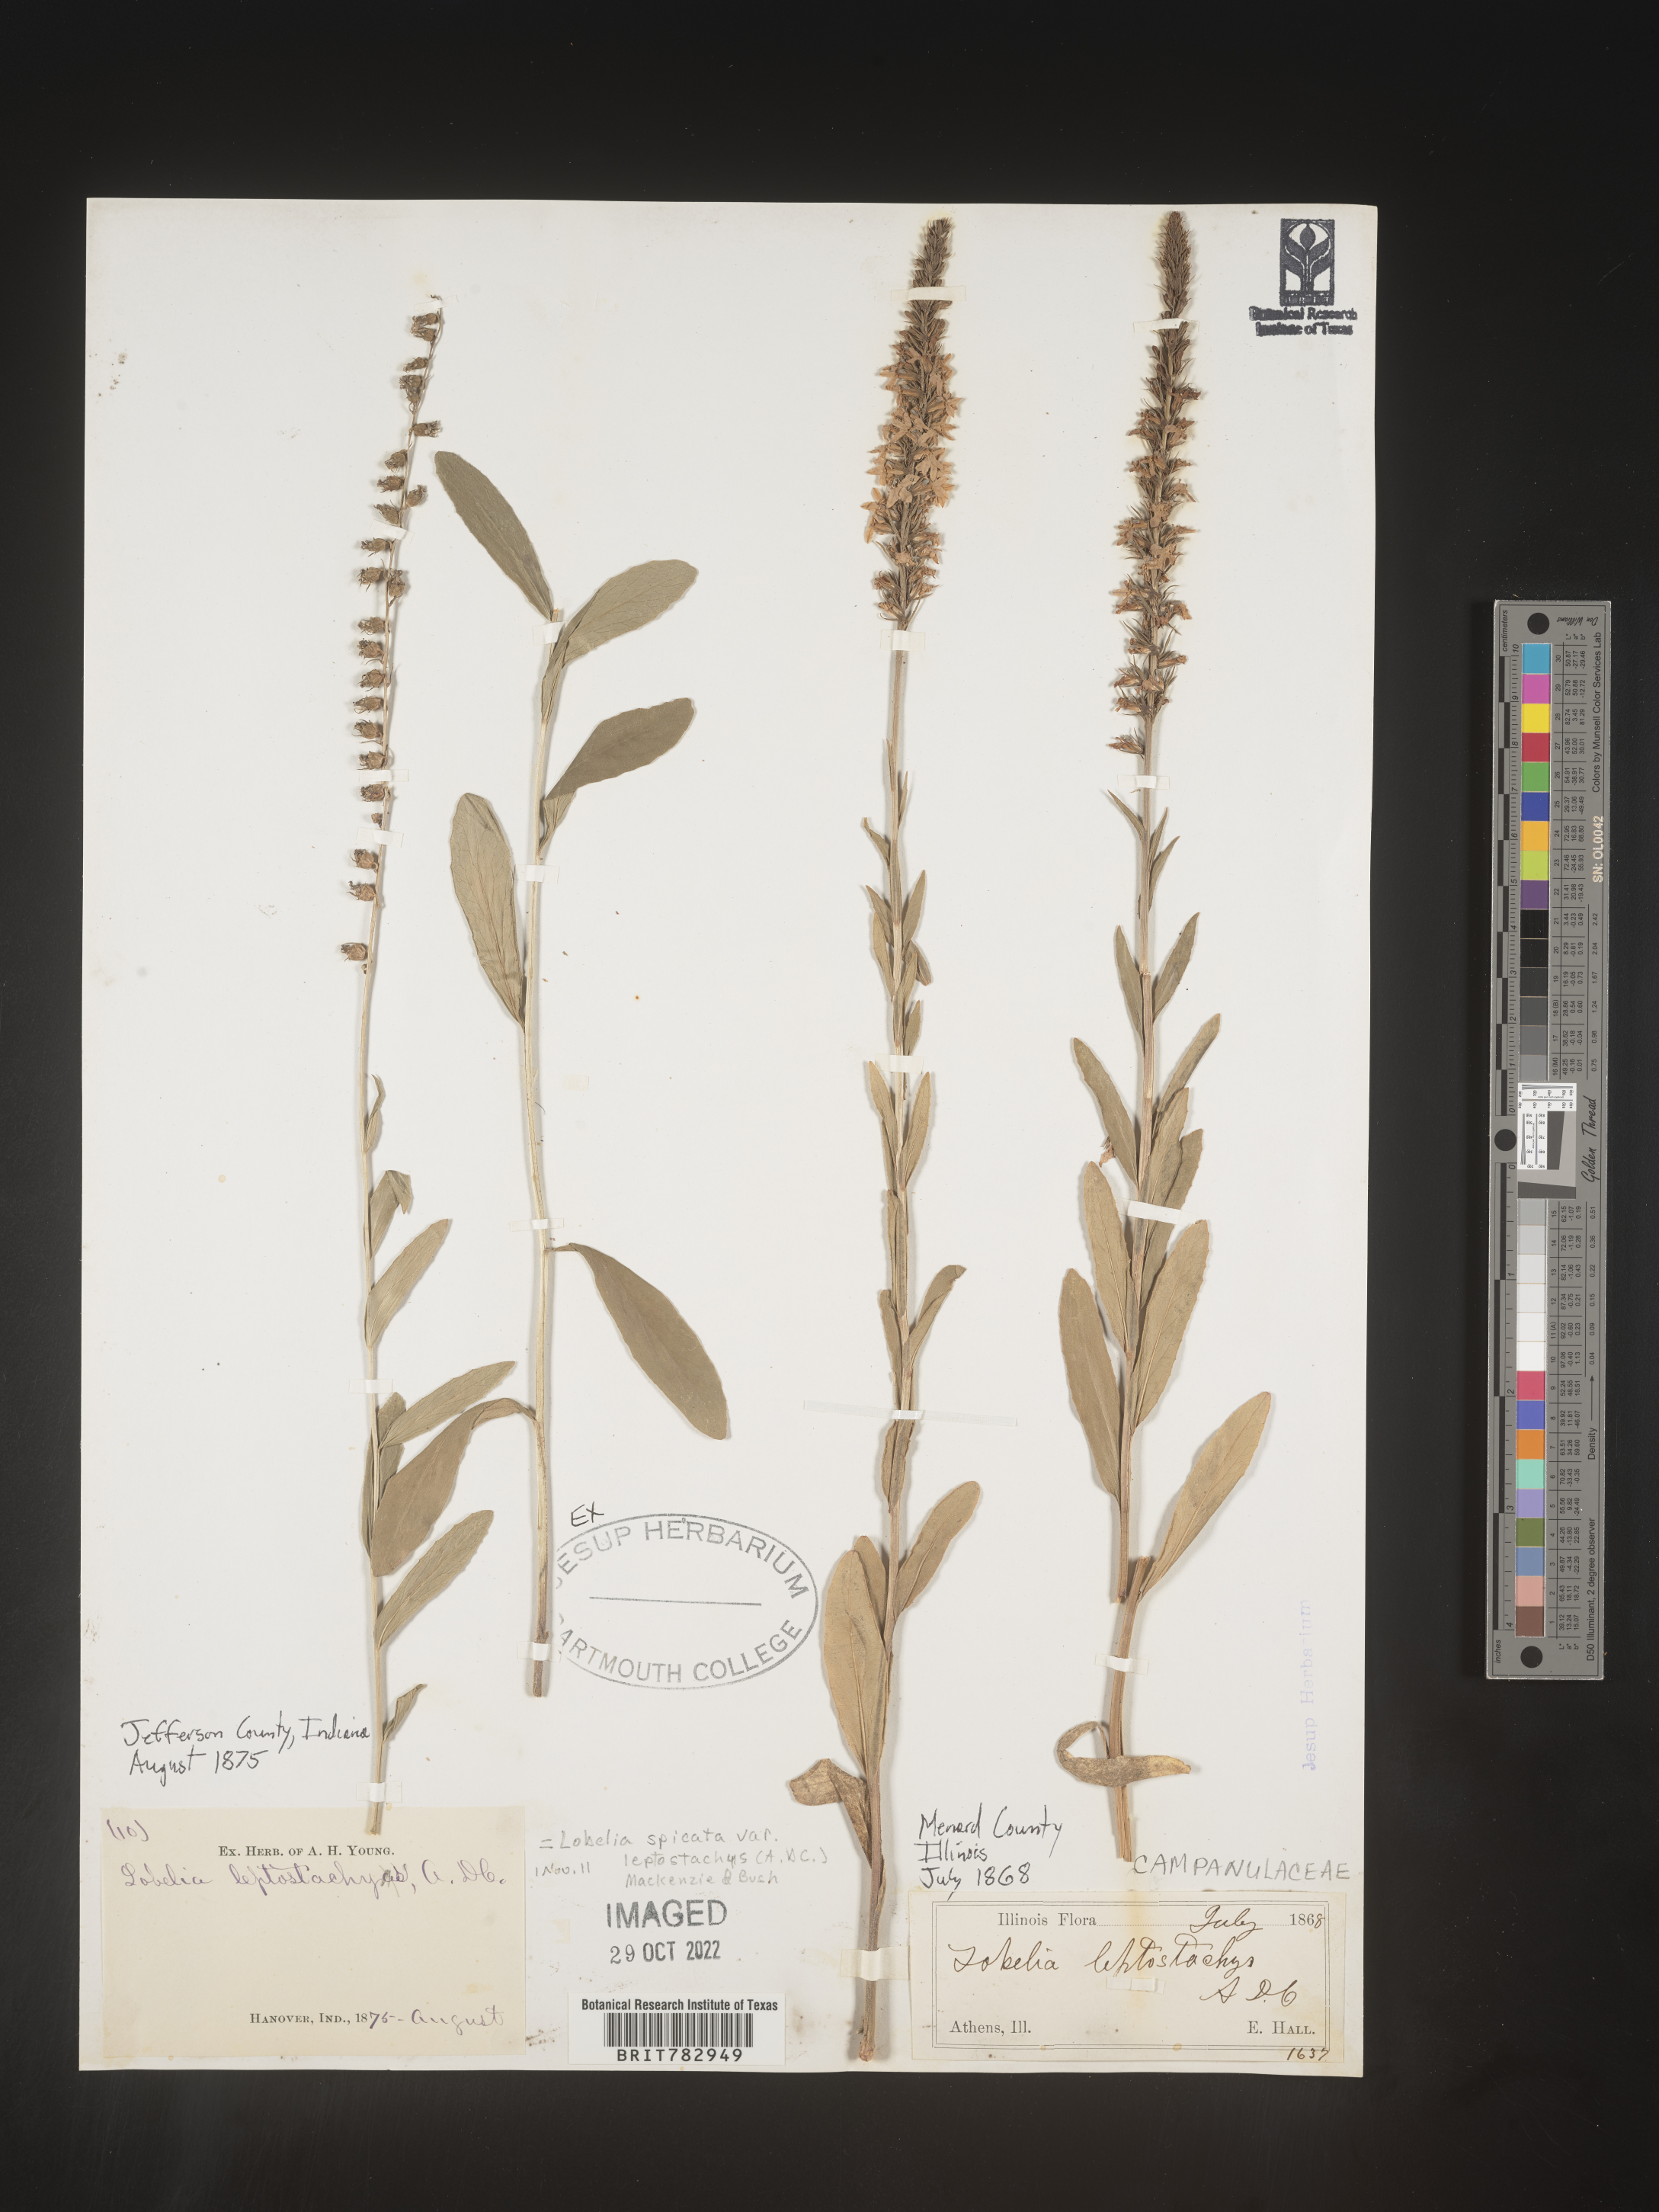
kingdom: Plantae
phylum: Tracheophyta
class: Magnoliopsida
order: Asterales
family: Campanulaceae
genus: Lobelia
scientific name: Lobelia spicata
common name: Pale-spike lobelia
